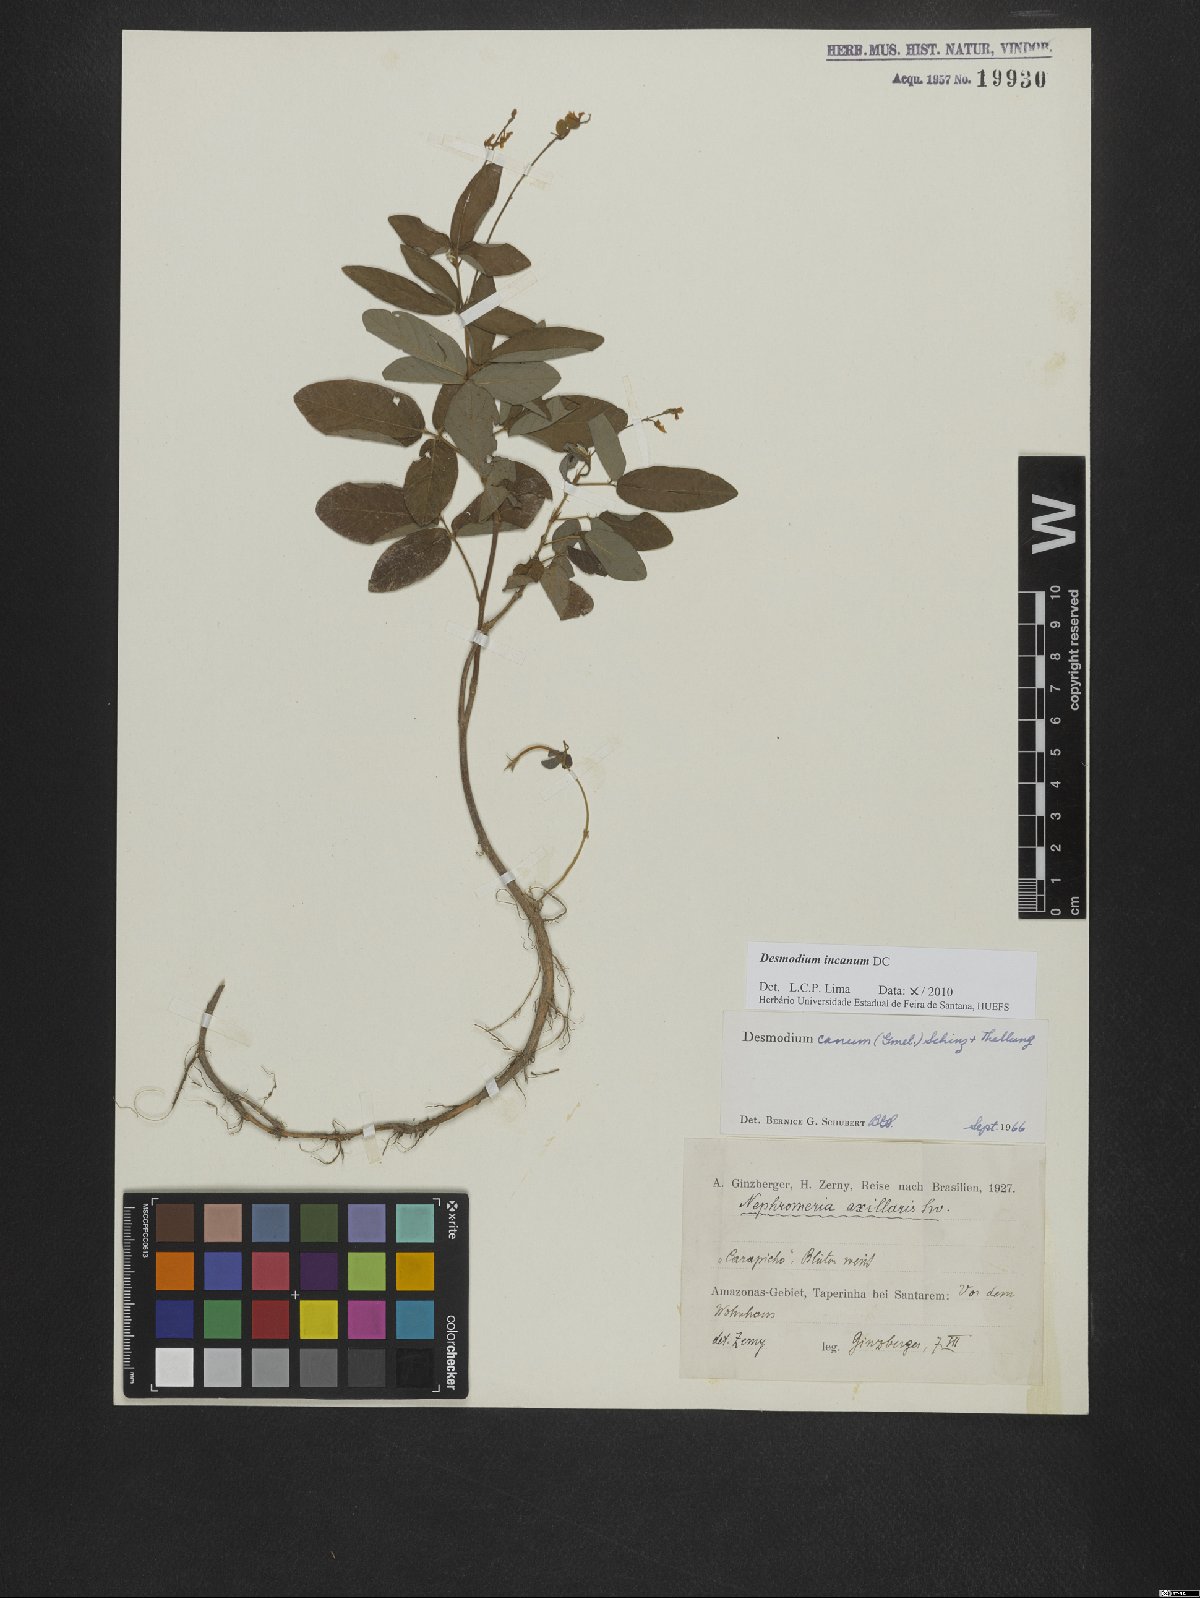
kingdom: Plantae
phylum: Tracheophyta
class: Magnoliopsida
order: Fabales
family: Fabaceae
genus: Desmodium
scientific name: Desmodium incanum
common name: Tickclover
